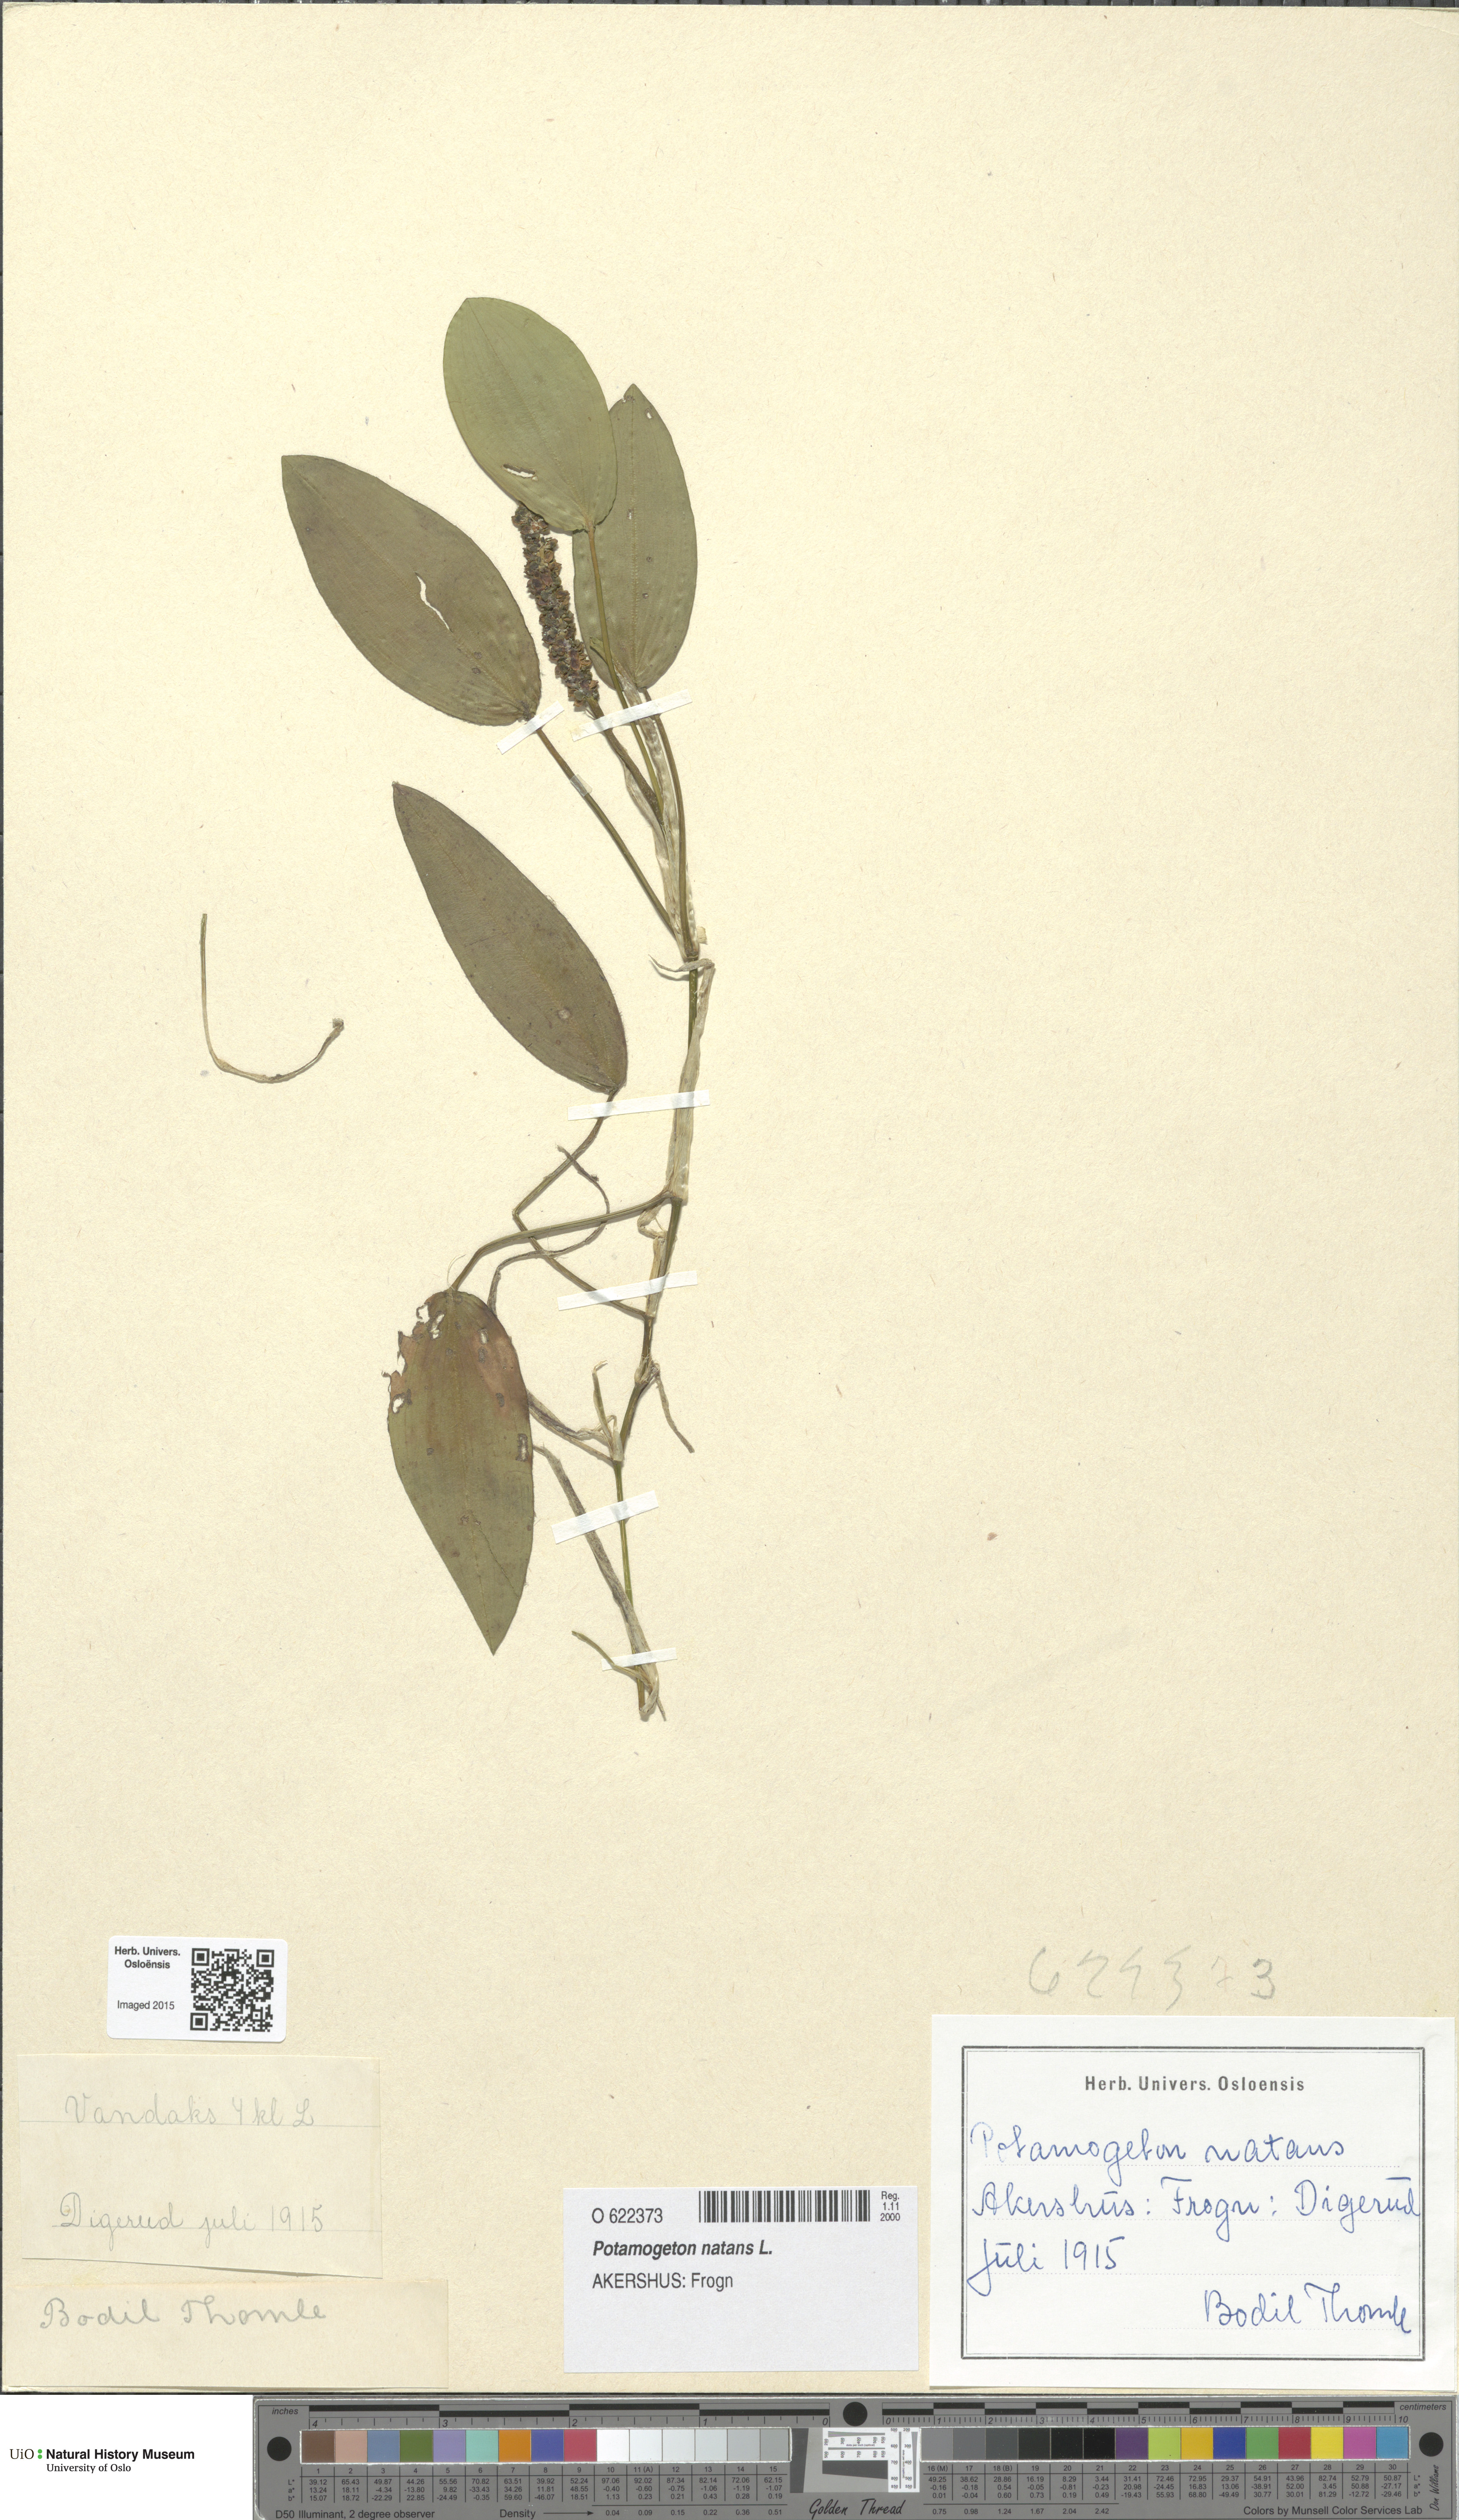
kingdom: Plantae
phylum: Tracheophyta
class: Liliopsida
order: Alismatales
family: Potamogetonaceae
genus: Potamogeton
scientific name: Potamogeton natans
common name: Broad-leaved pondweed
